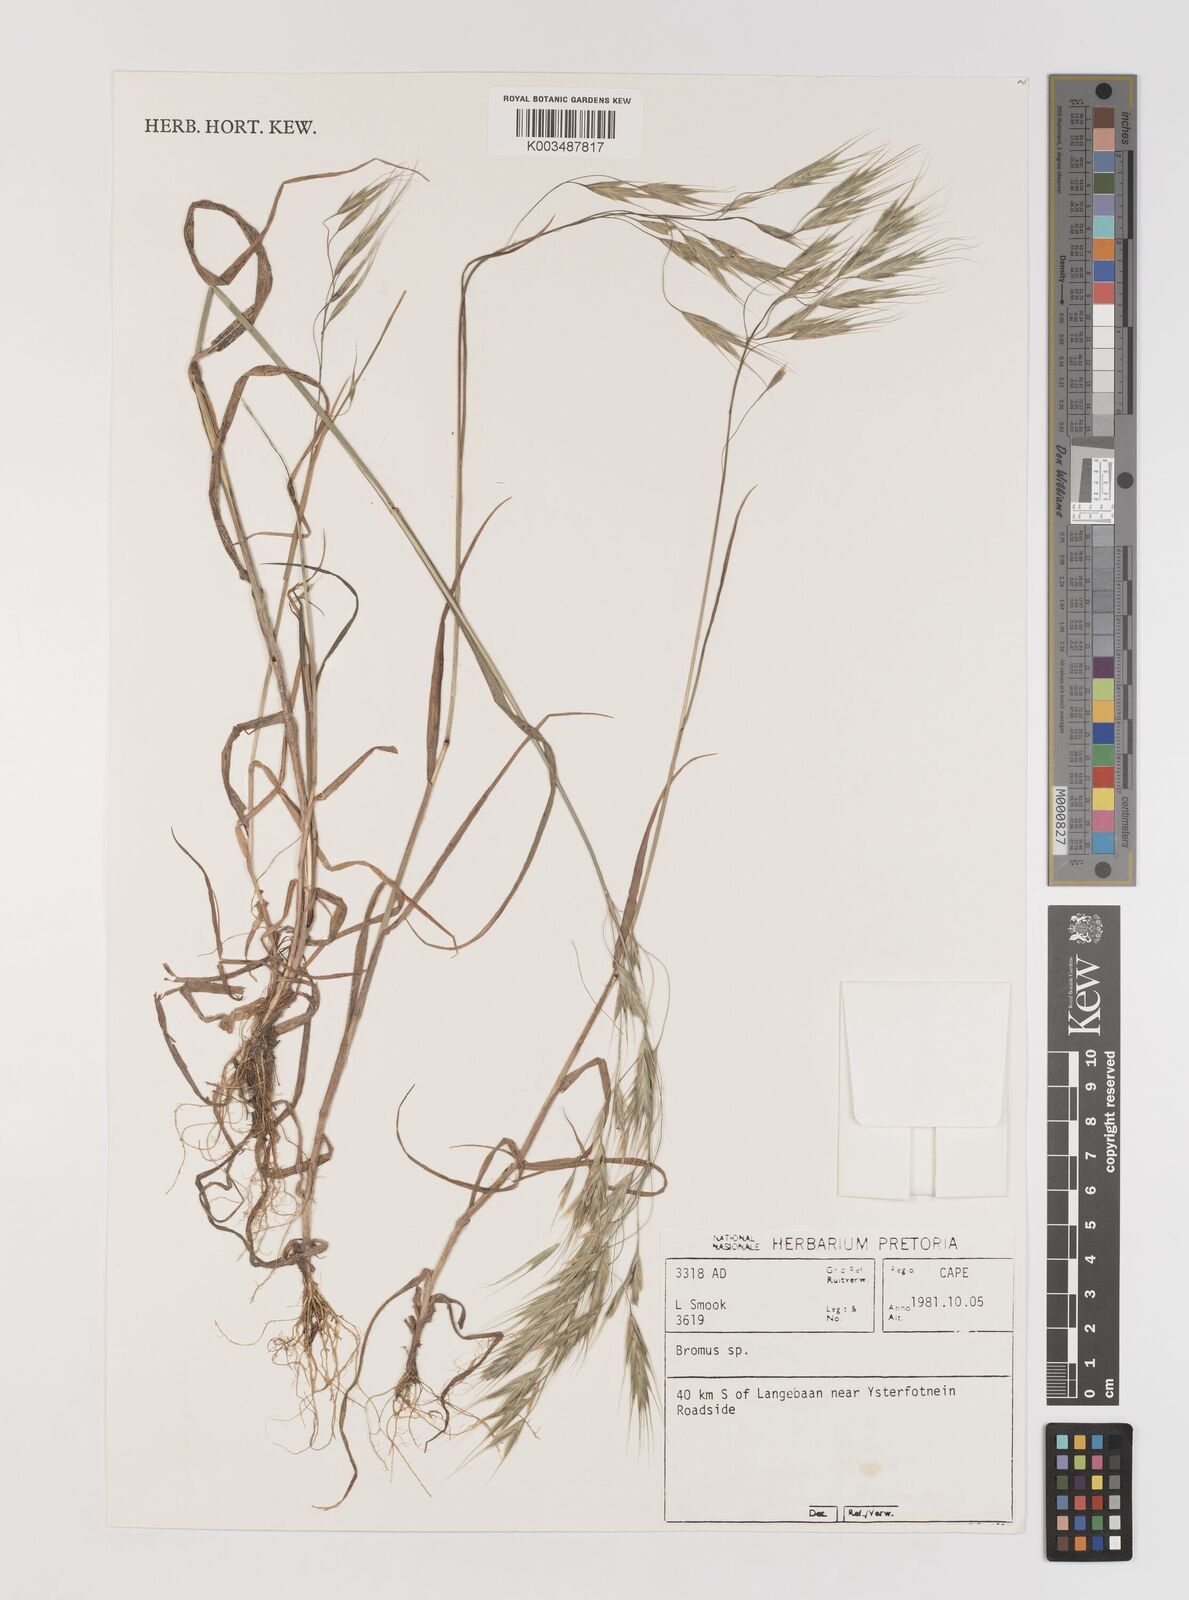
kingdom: Plantae
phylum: Tracheophyta
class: Liliopsida
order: Poales
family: Poaceae
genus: Bromus
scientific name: Bromus
